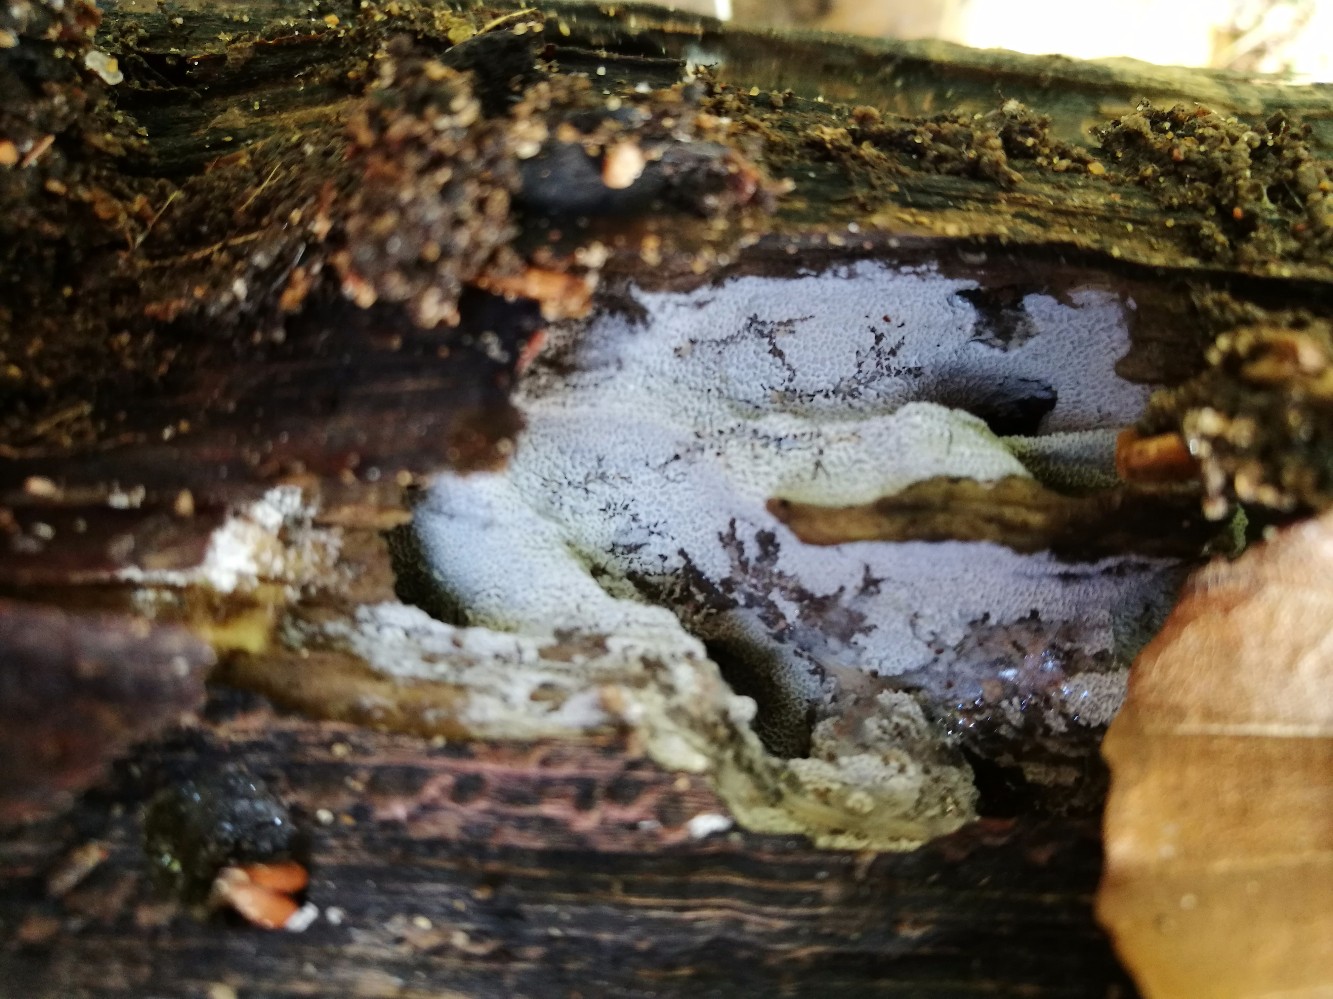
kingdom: Fungi
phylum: Basidiomycota
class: Agaricomycetes
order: Polyporales
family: Irpicaceae
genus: Ceriporia
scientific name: Ceriporia reticulata
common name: netagtig voksporesvamp
